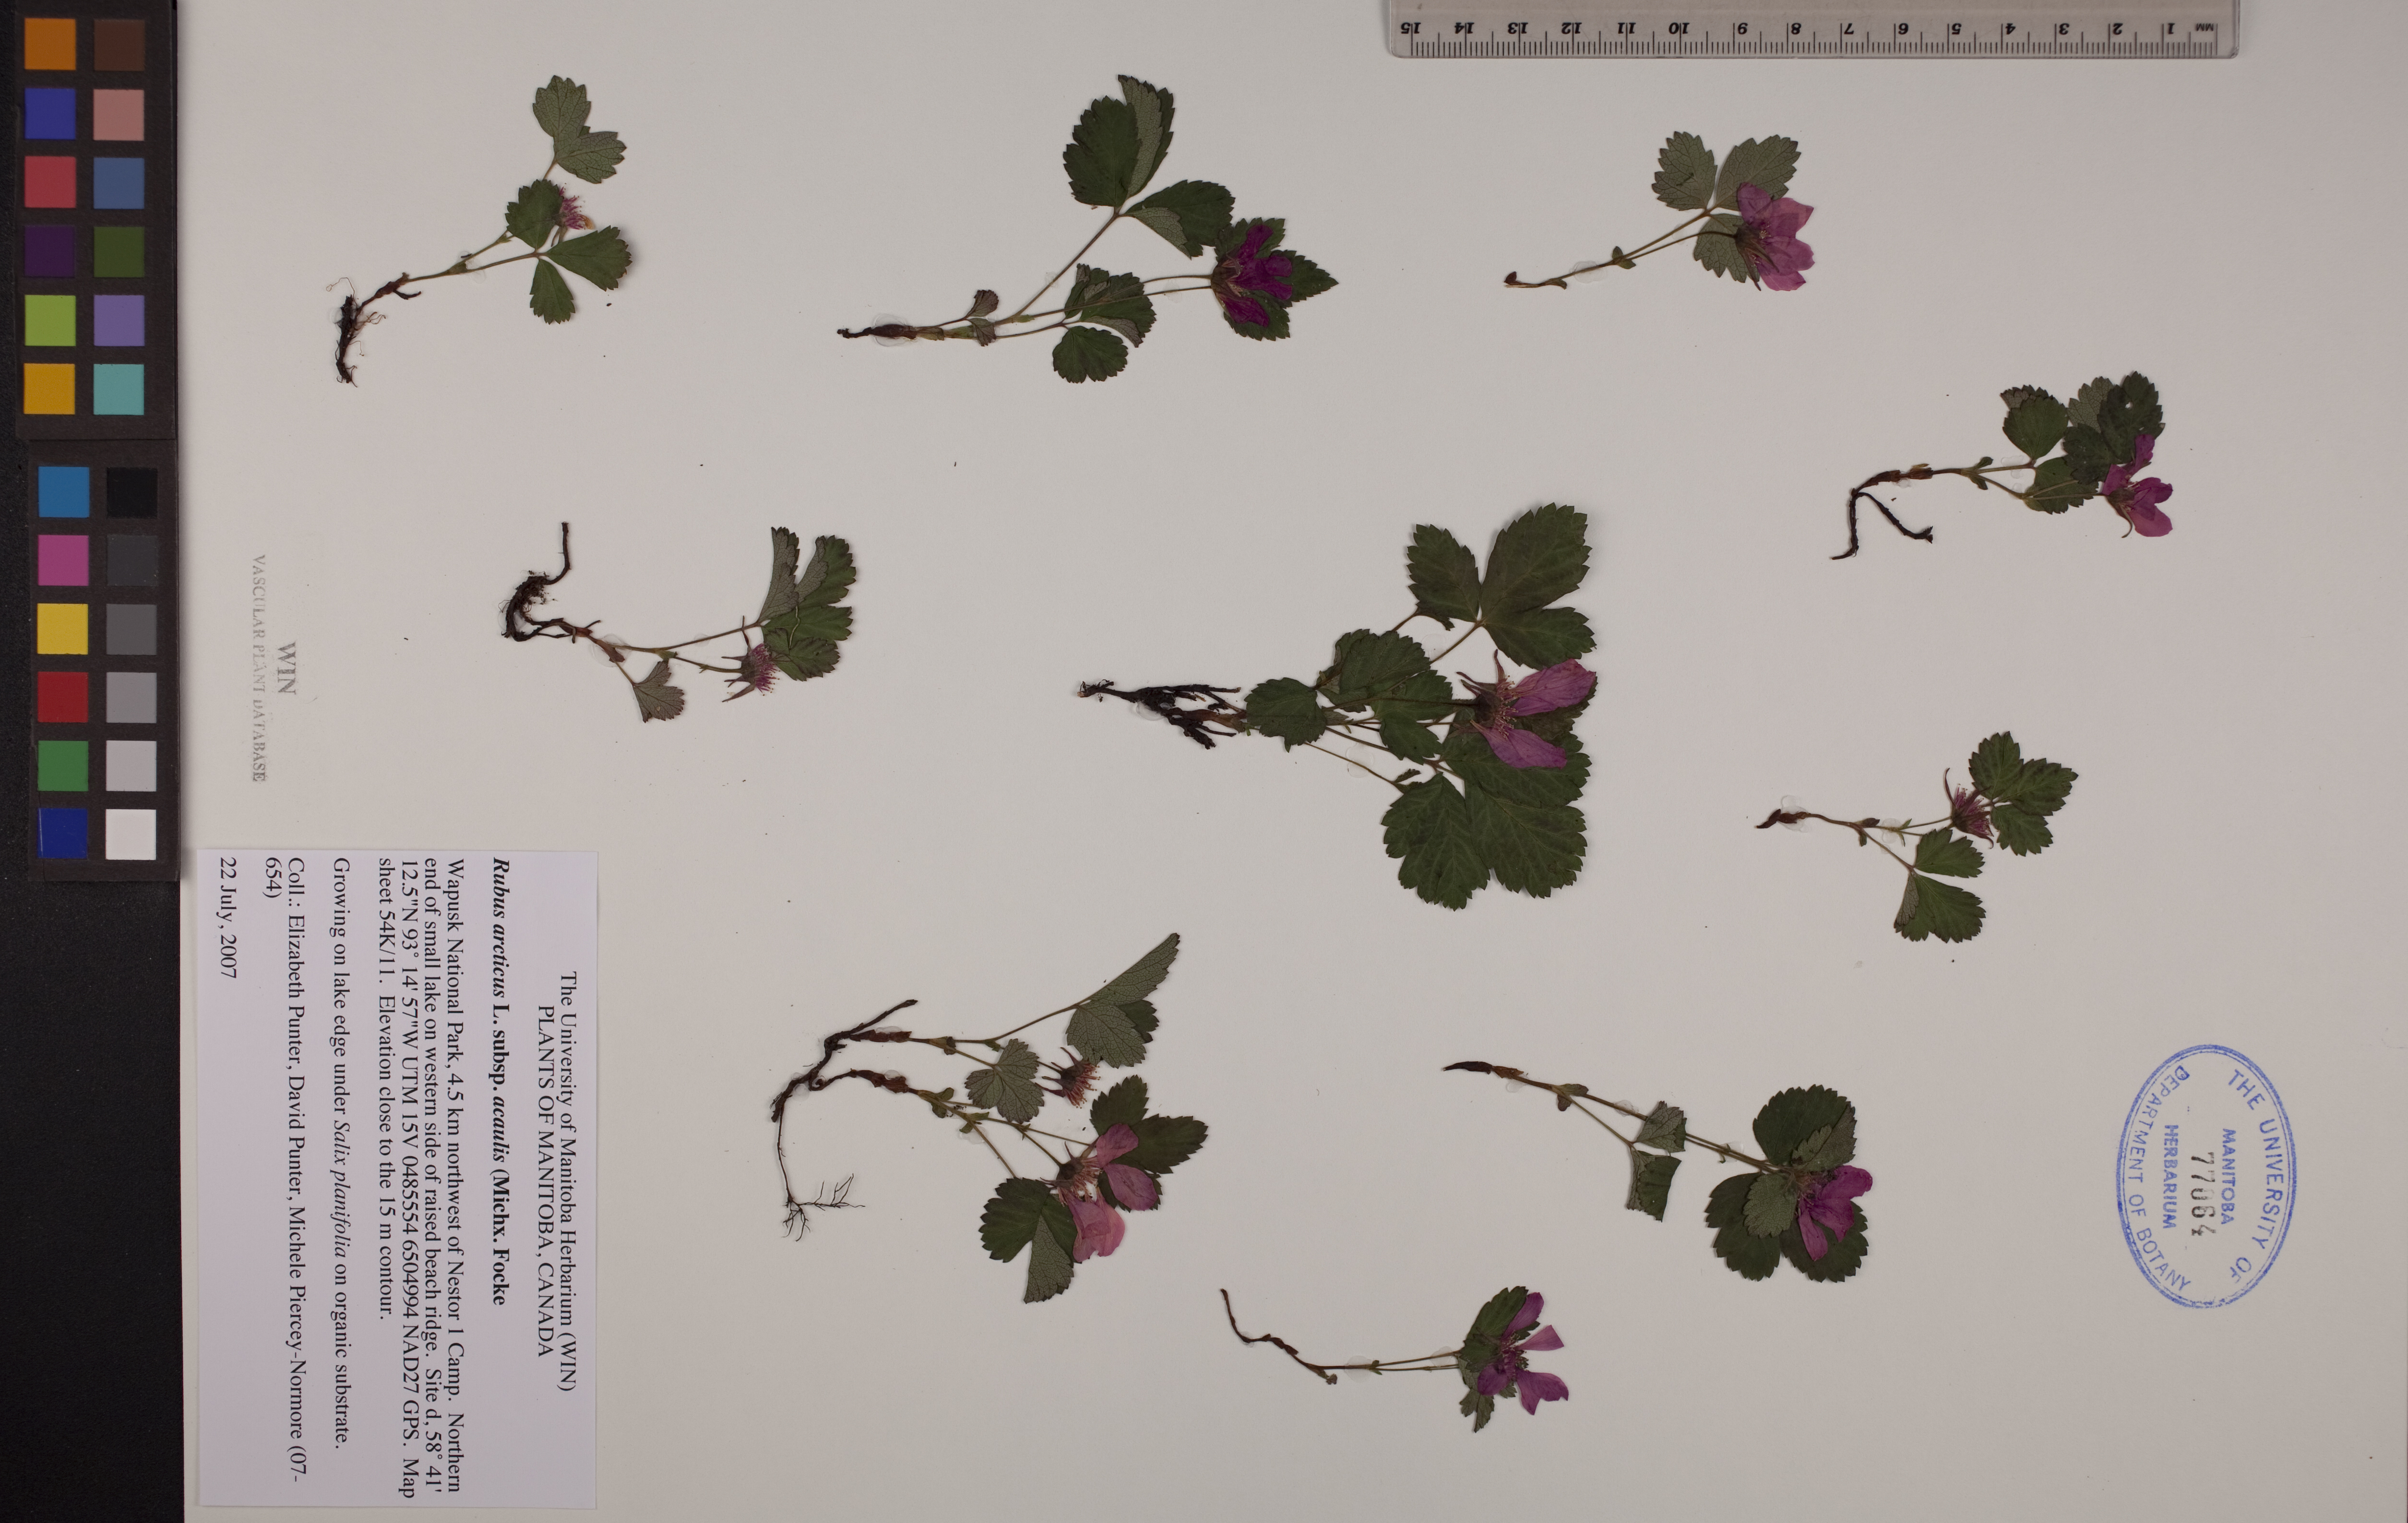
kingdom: Plantae
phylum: Tracheophyta
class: Magnoliopsida
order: Rosales
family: Rosaceae
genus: Rubus
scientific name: Rubus arcticus
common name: Arctic bramble
